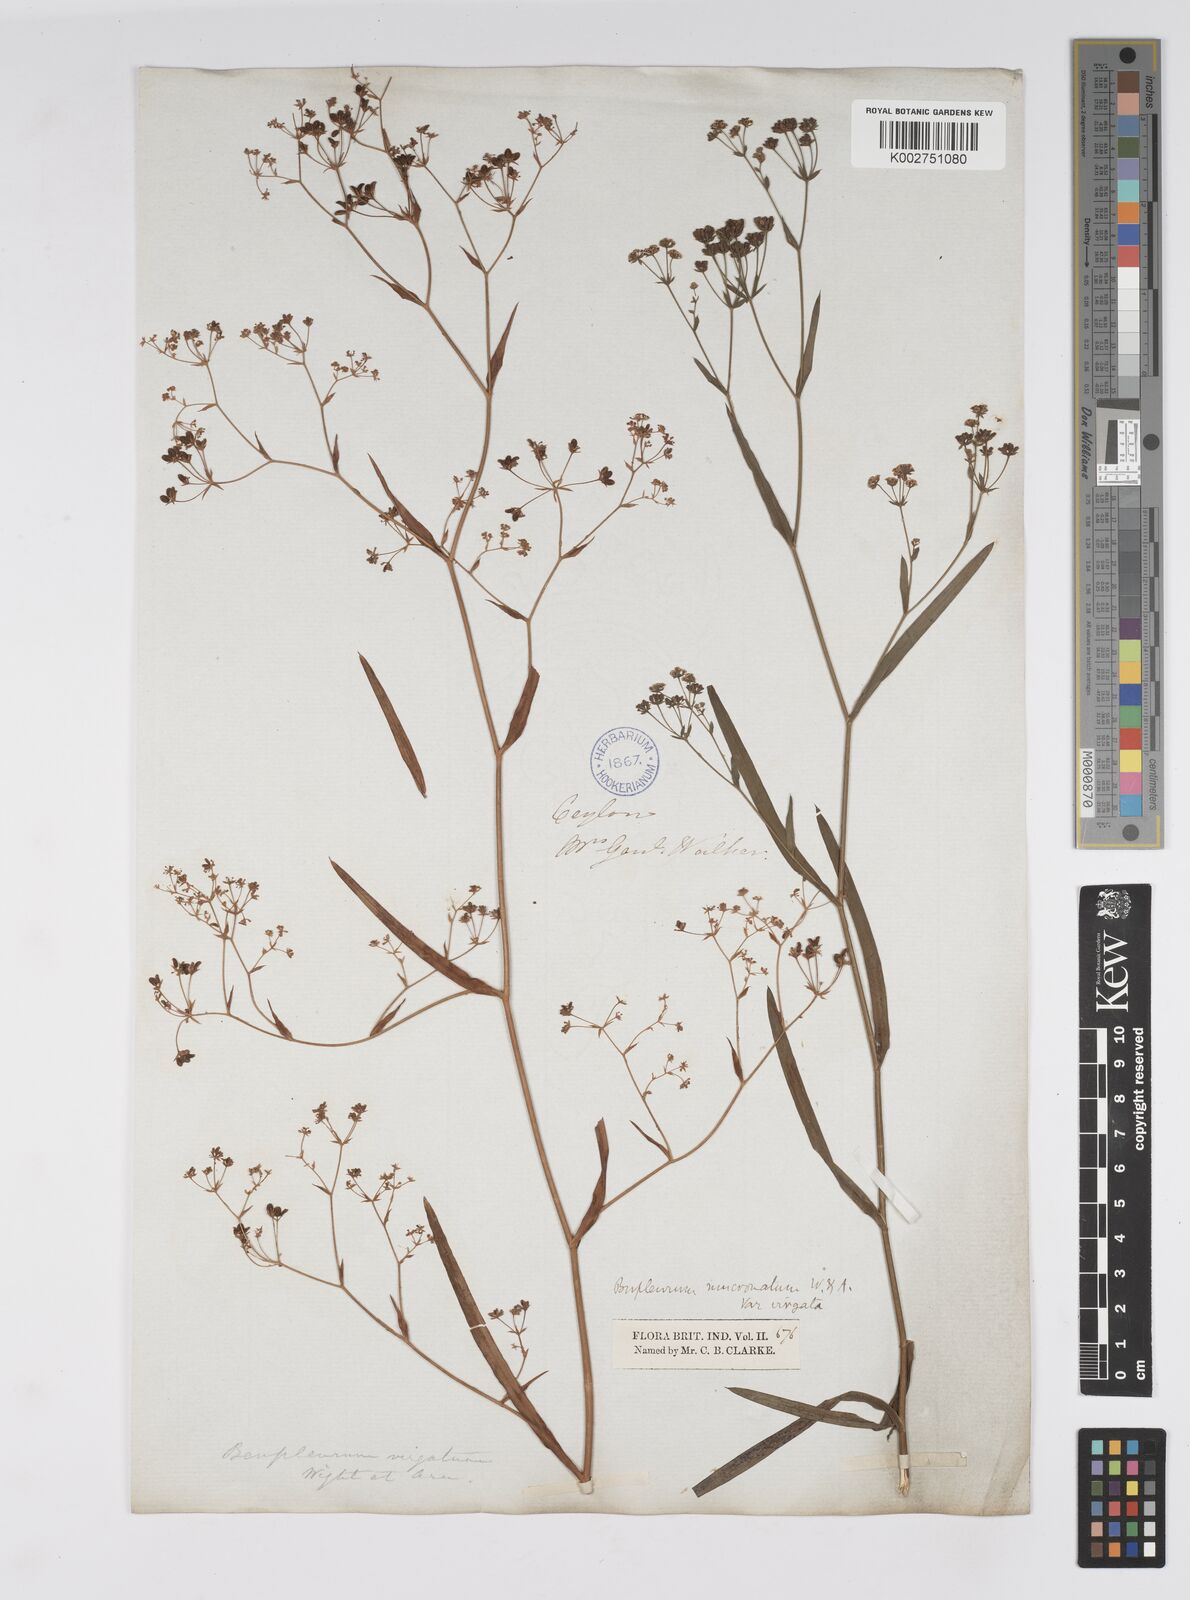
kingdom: Plantae
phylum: Tracheophyta
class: Magnoliopsida
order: Apiales
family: Apiaceae
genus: Bupleurum
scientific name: Bupleurum ramosissimum
